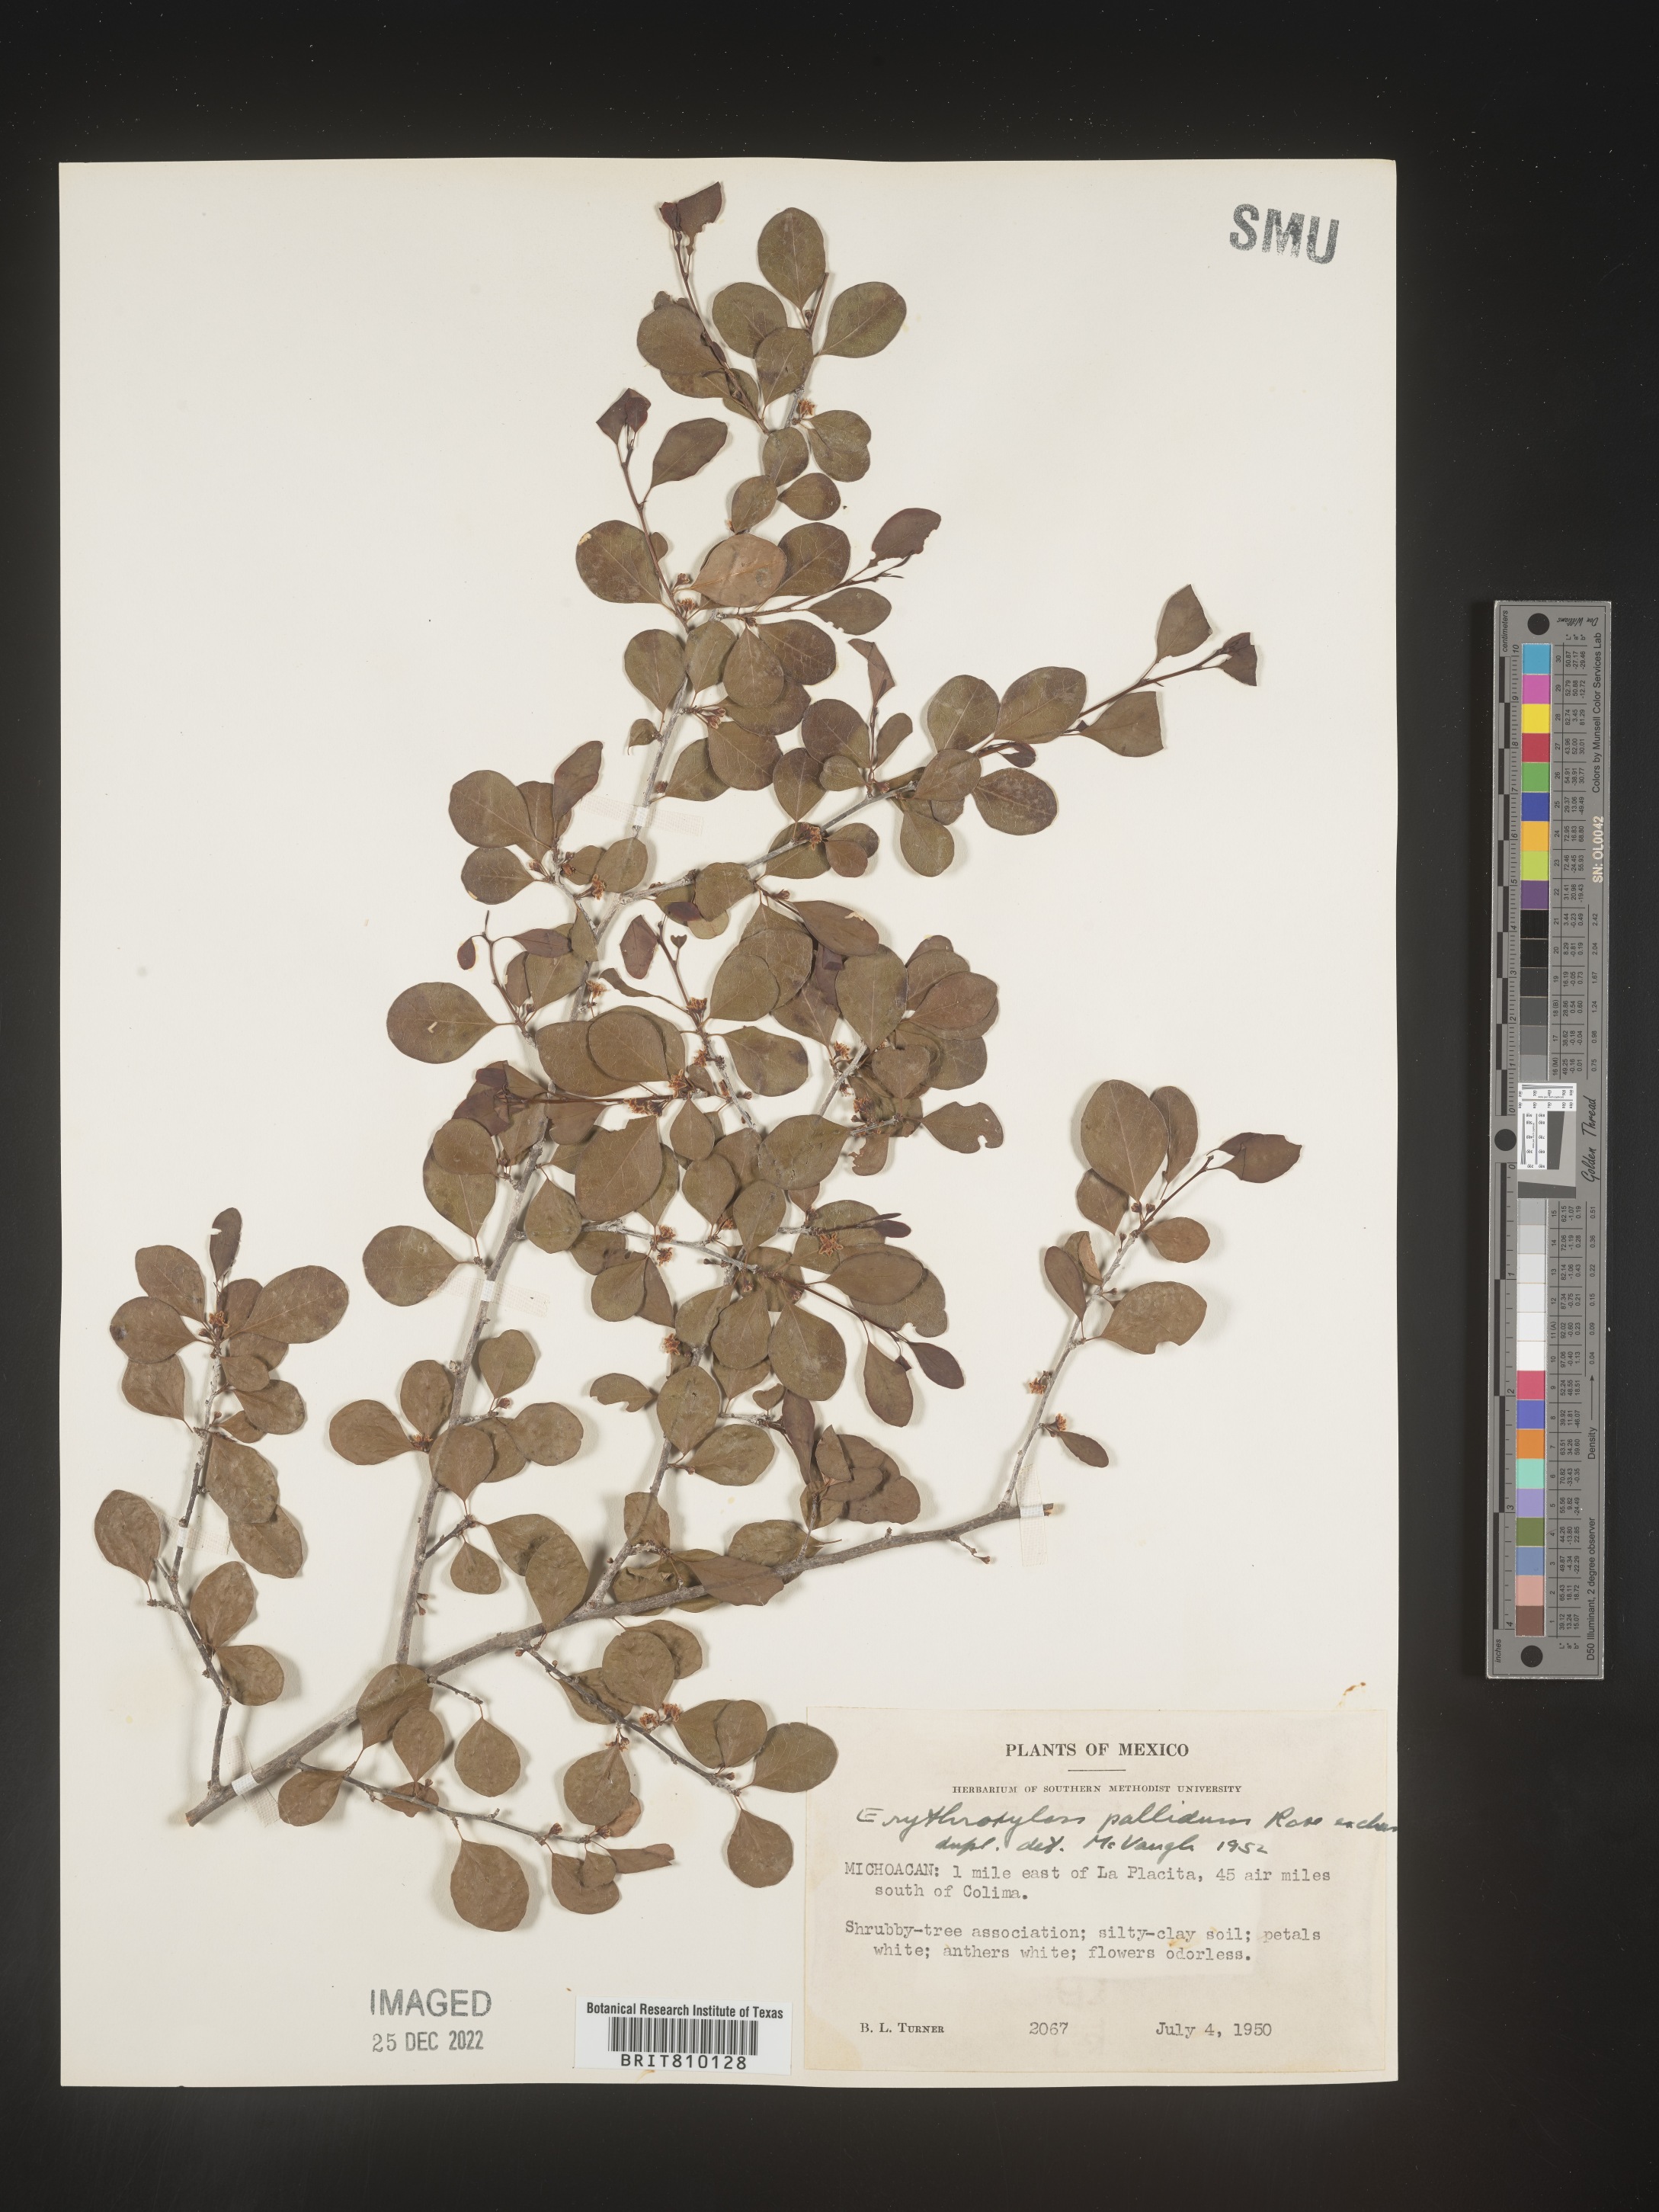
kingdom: Plantae
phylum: Tracheophyta
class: Magnoliopsida
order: Malpighiales
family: Erythroxylaceae
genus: Erythroxylum
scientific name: Erythroxylum
